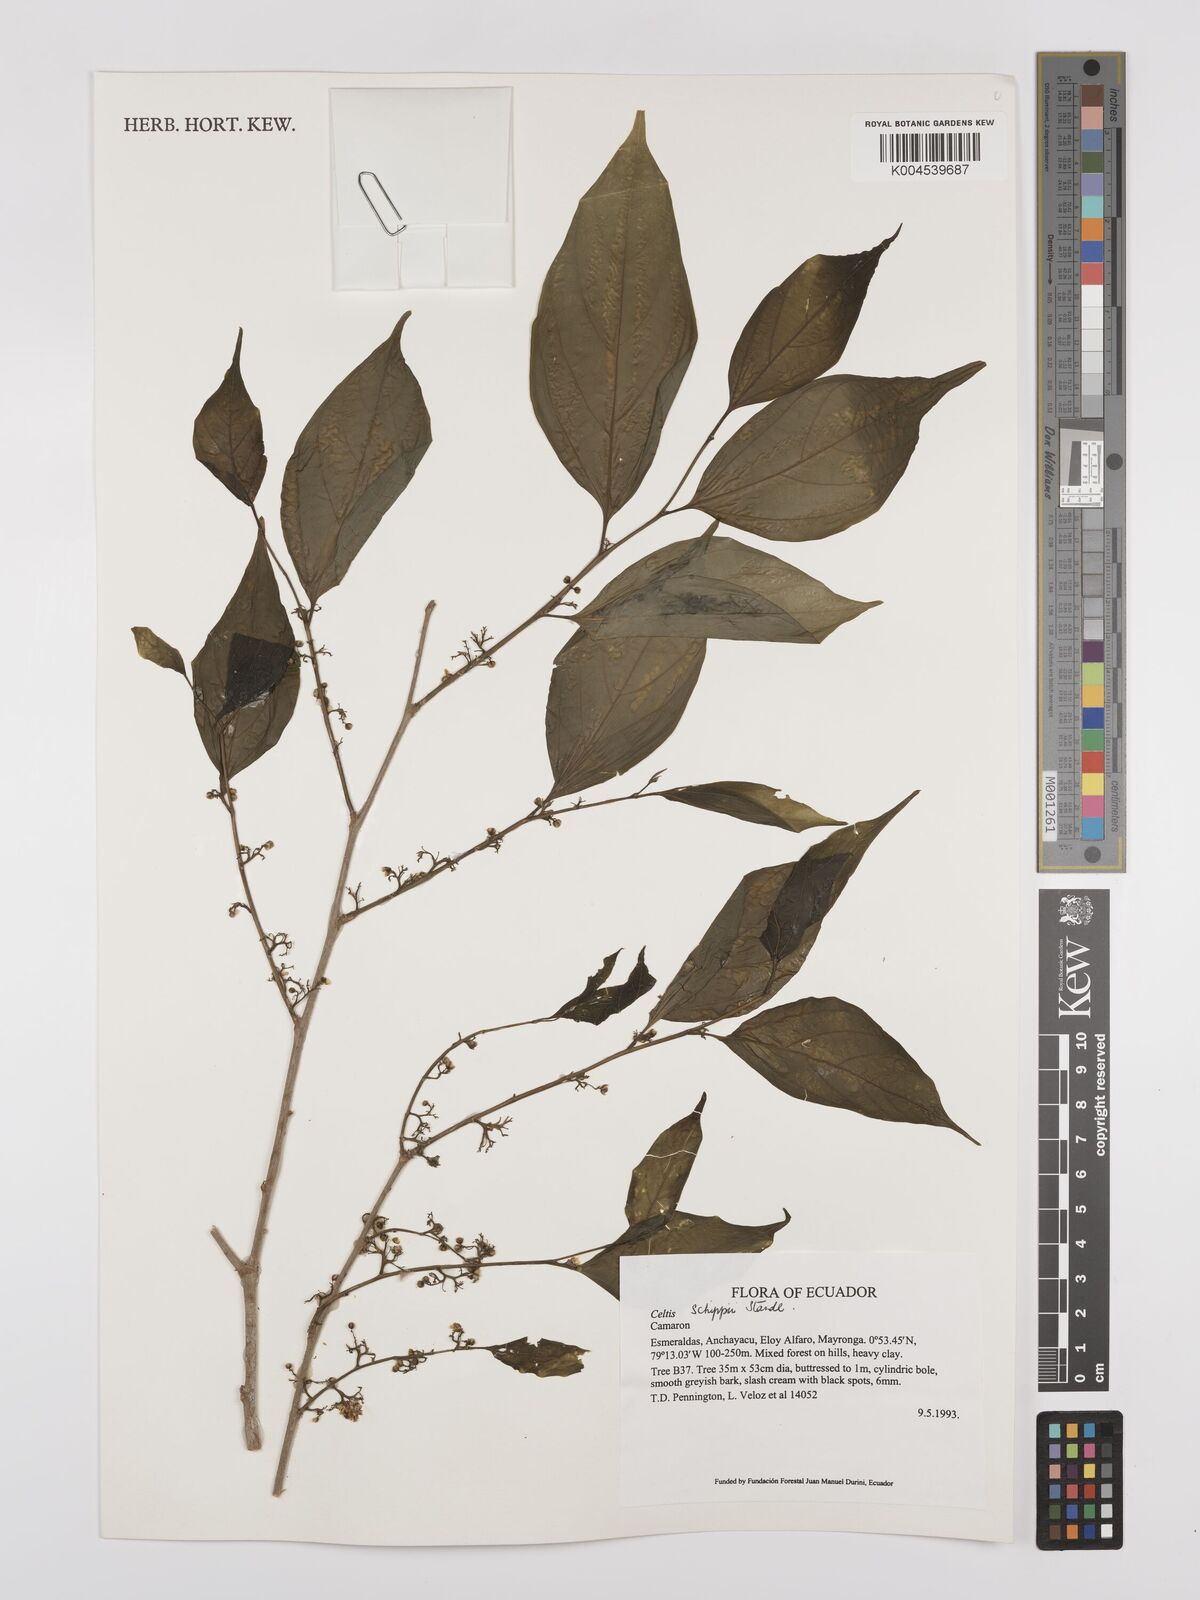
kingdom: Plantae
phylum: Tracheophyta
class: Magnoliopsida
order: Rosales
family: Cannabaceae
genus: Celtis
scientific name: Celtis schippii
